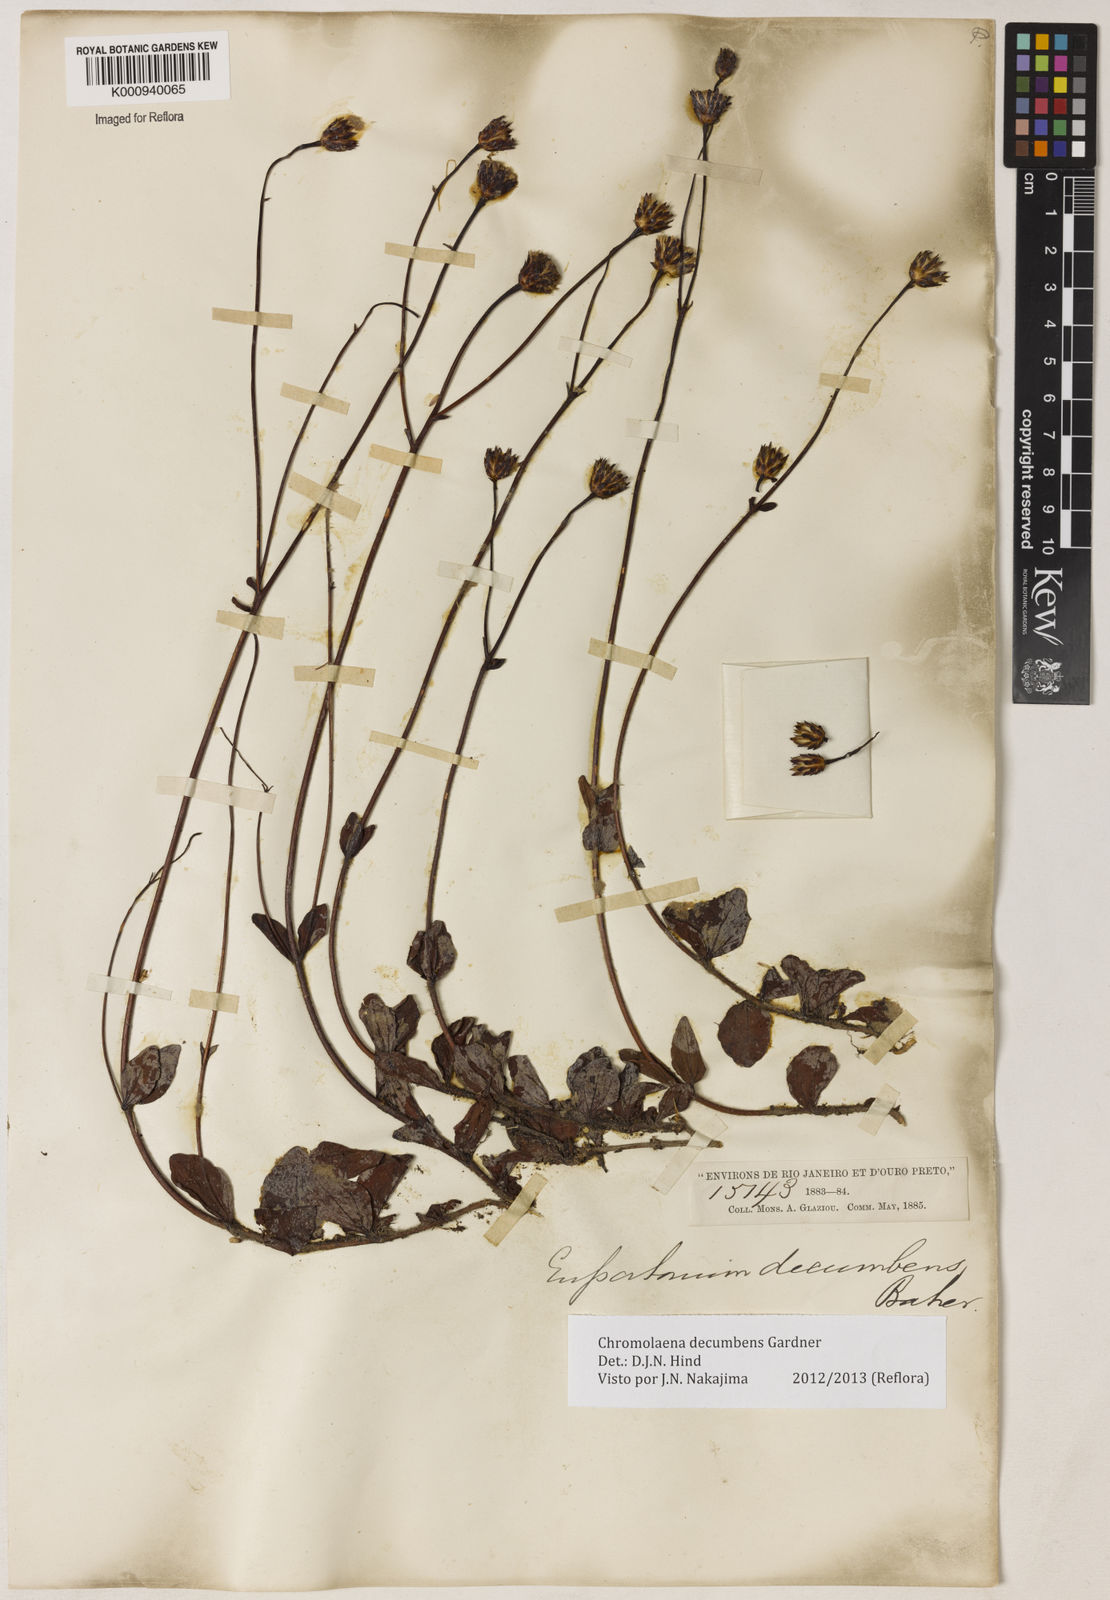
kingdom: Plantae
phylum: Tracheophyta
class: Magnoliopsida
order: Asterales
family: Asteraceae
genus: Praxelis
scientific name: Praxelis decumbens
